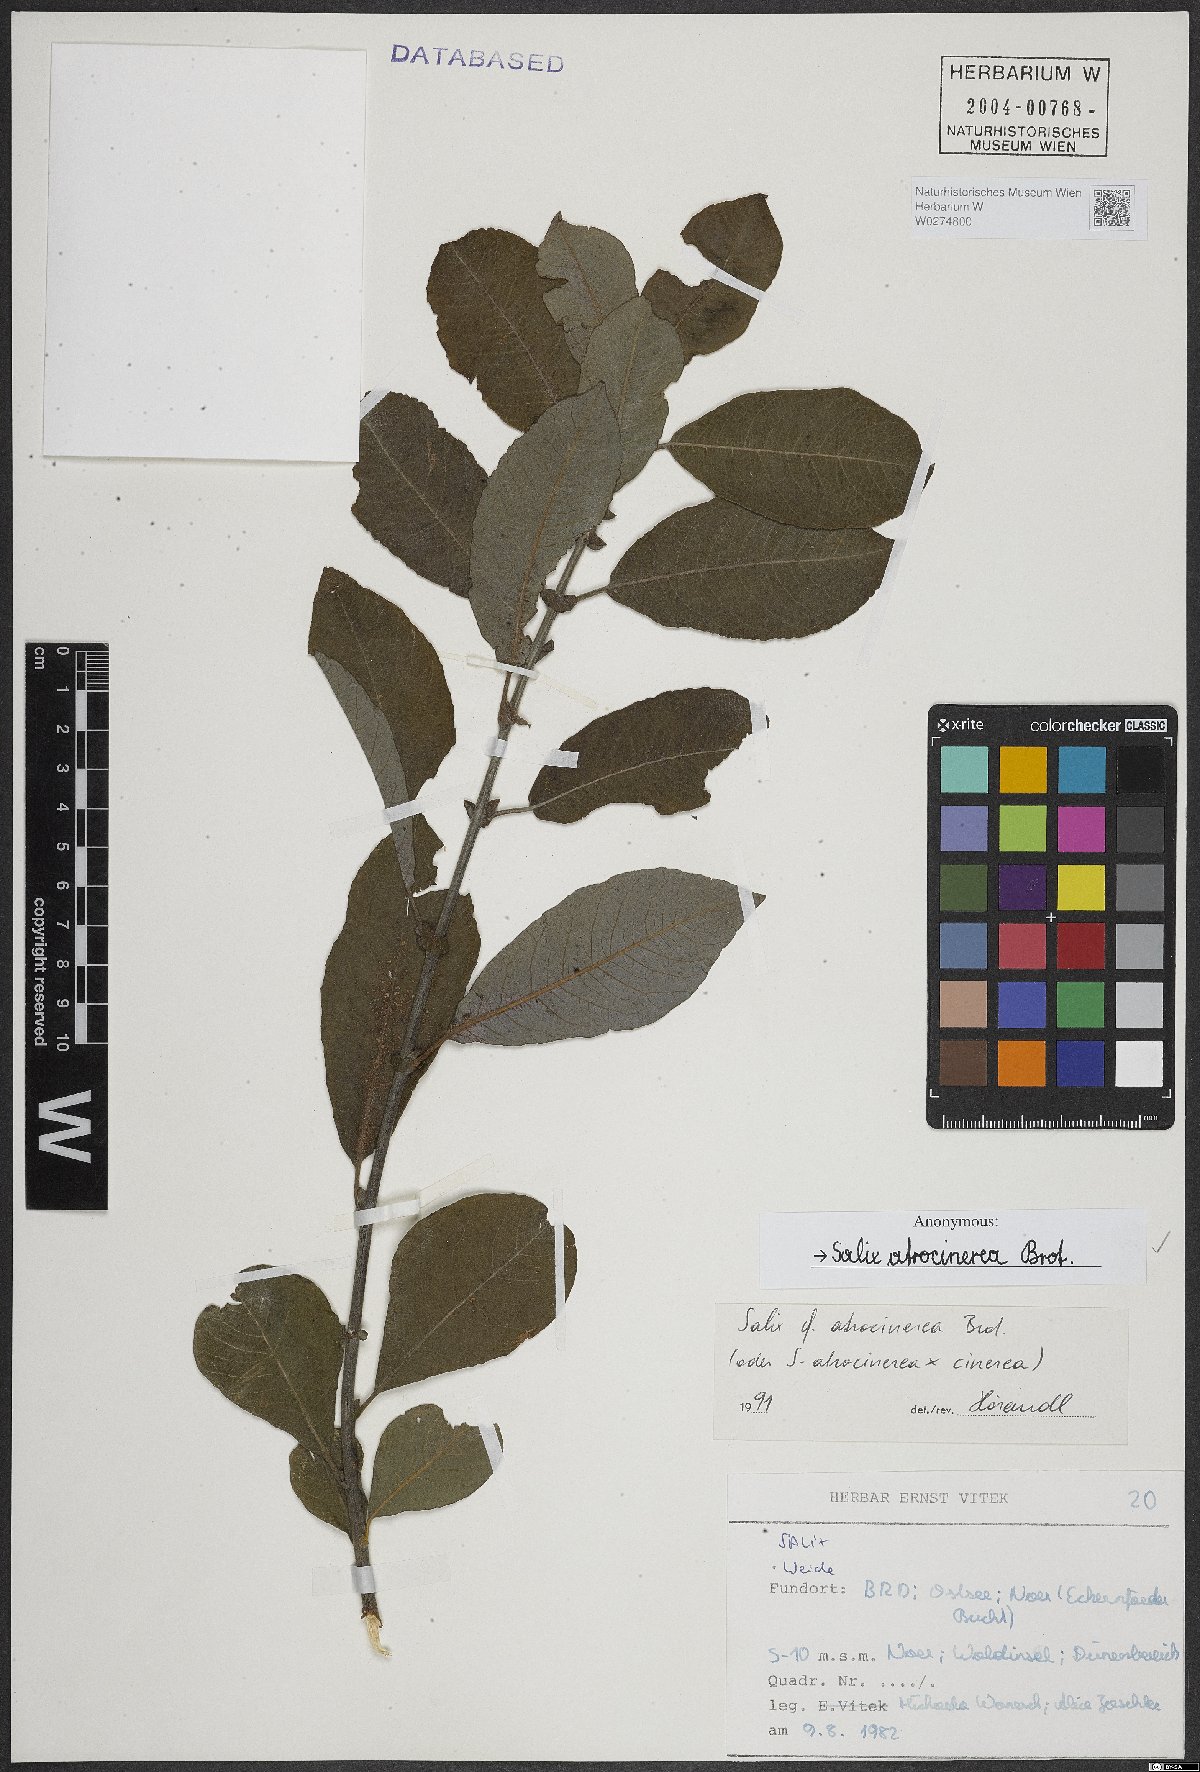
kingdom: Plantae
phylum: Tracheophyta
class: Magnoliopsida
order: Malpighiales
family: Salicaceae
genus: Salix
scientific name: Salix atrocinerea
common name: Rusty willow
